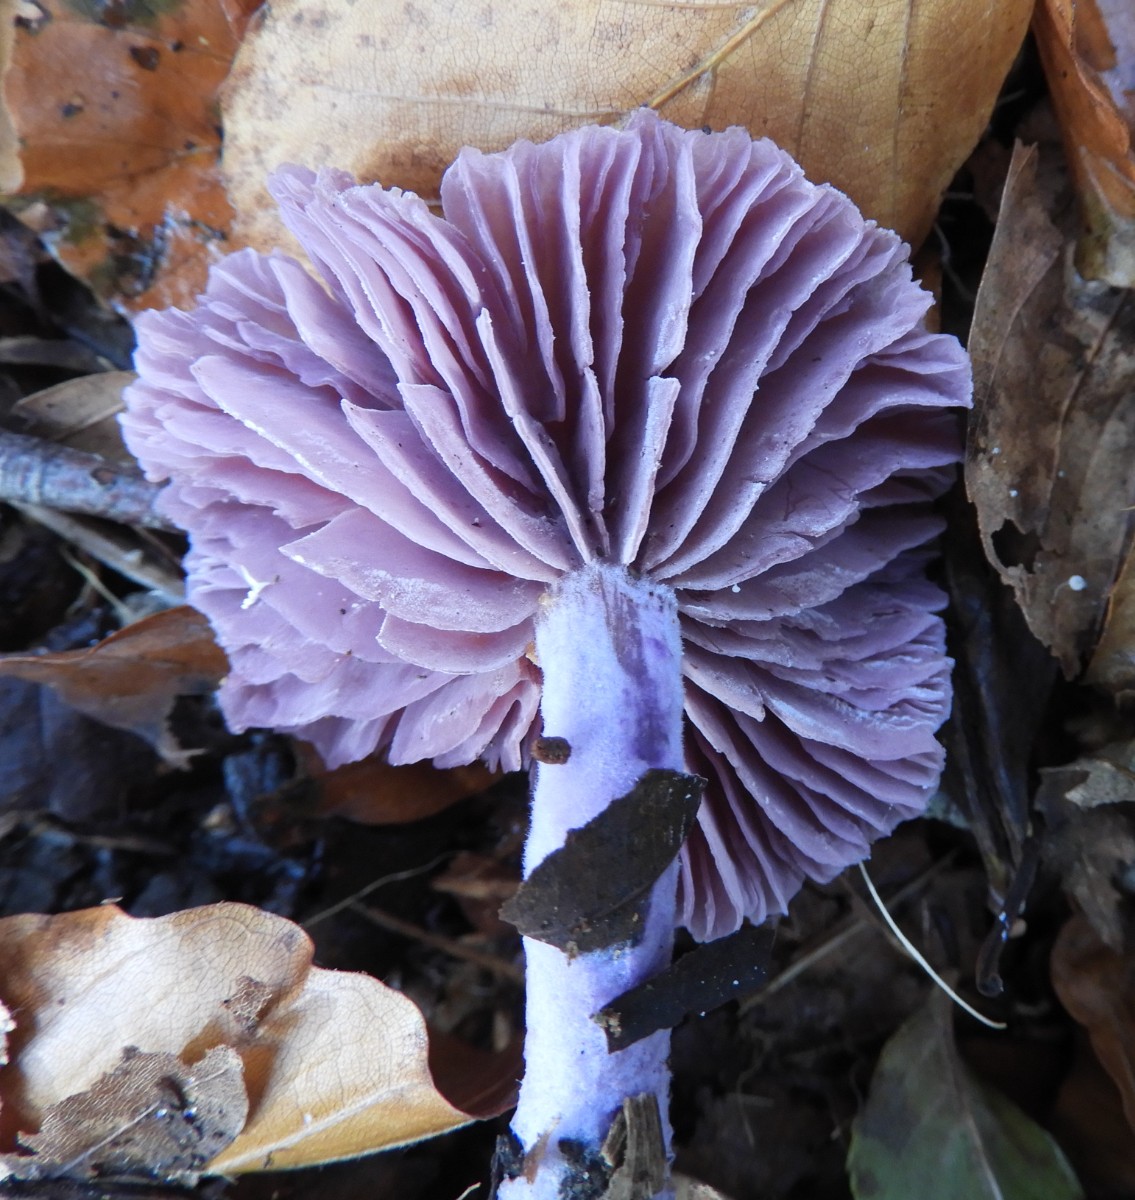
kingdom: Fungi
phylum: Basidiomycota
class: Agaricomycetes
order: Agaricales
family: Hydnangiaceae
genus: Laccaria
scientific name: Laccaria amethystina
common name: violet ametysthat
